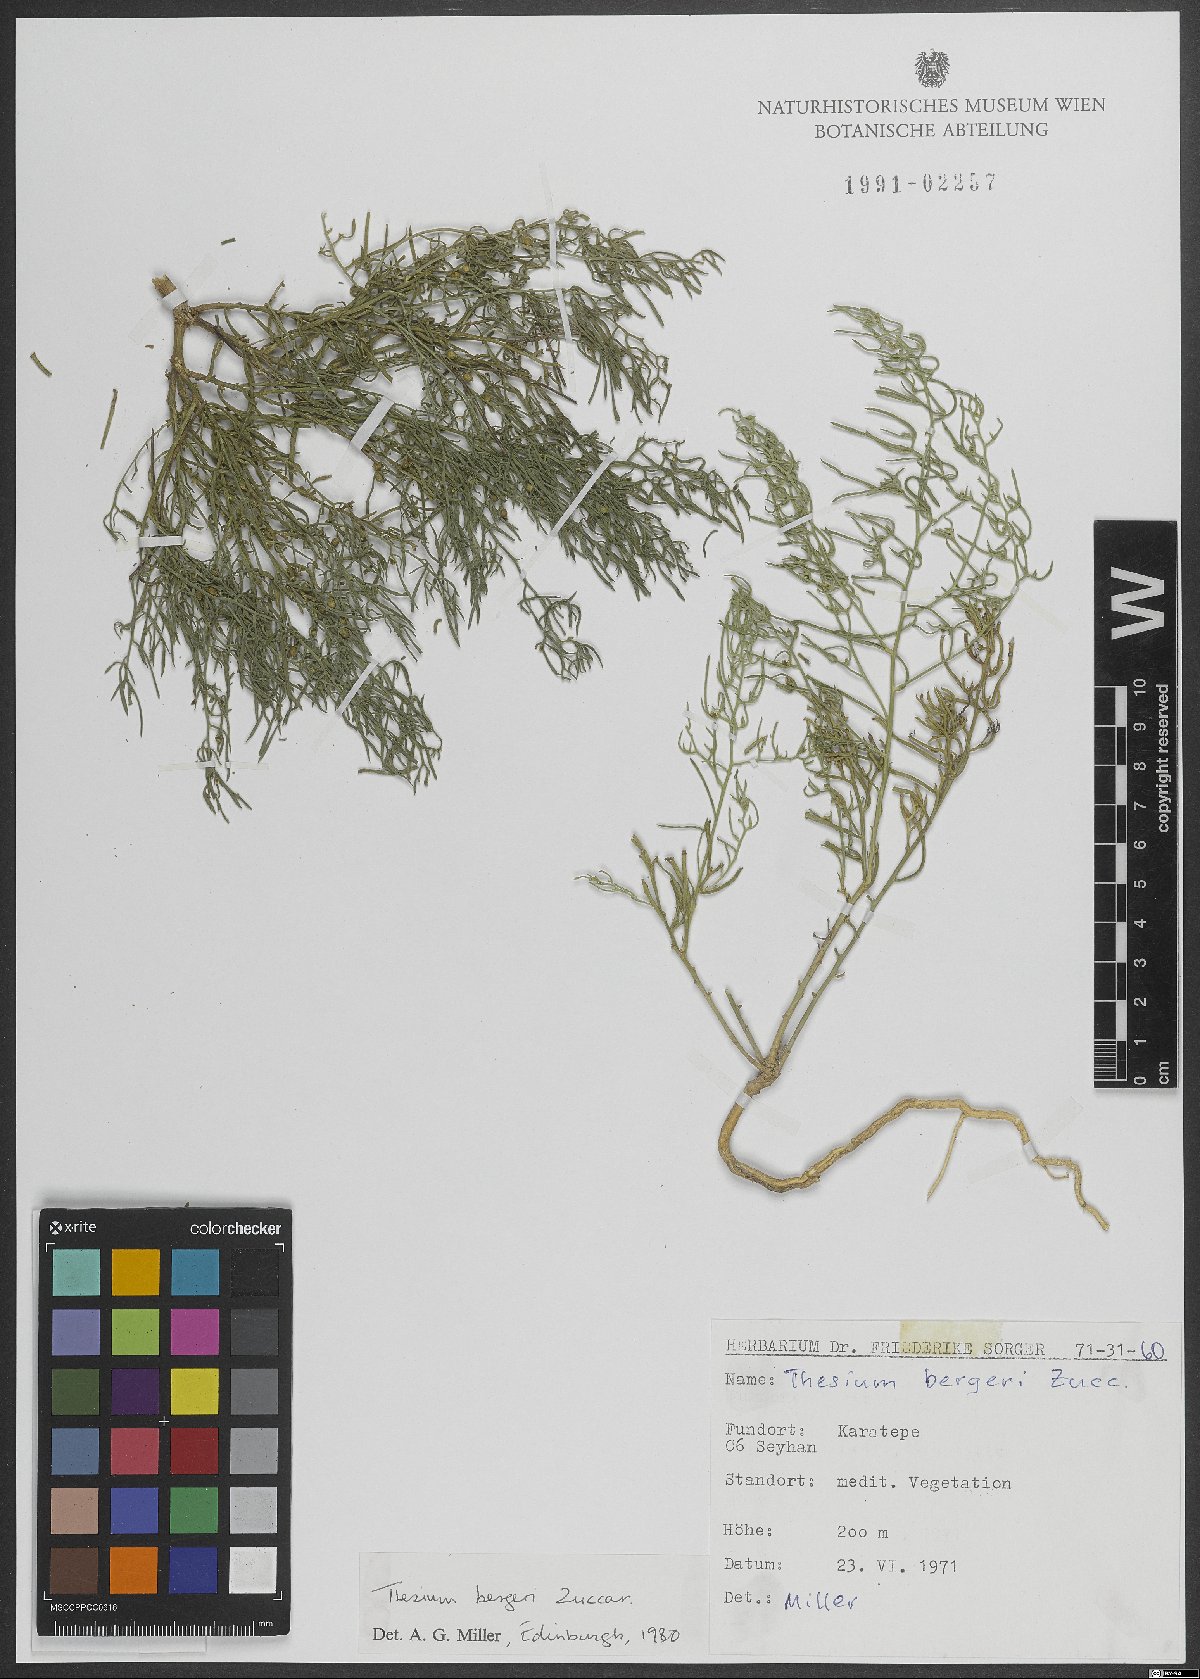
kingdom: Plantae
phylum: Tracheophyta
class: Magnoliopsida
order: Santalales
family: Thesiaceae
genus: Thesium
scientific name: Thesium bergeri
